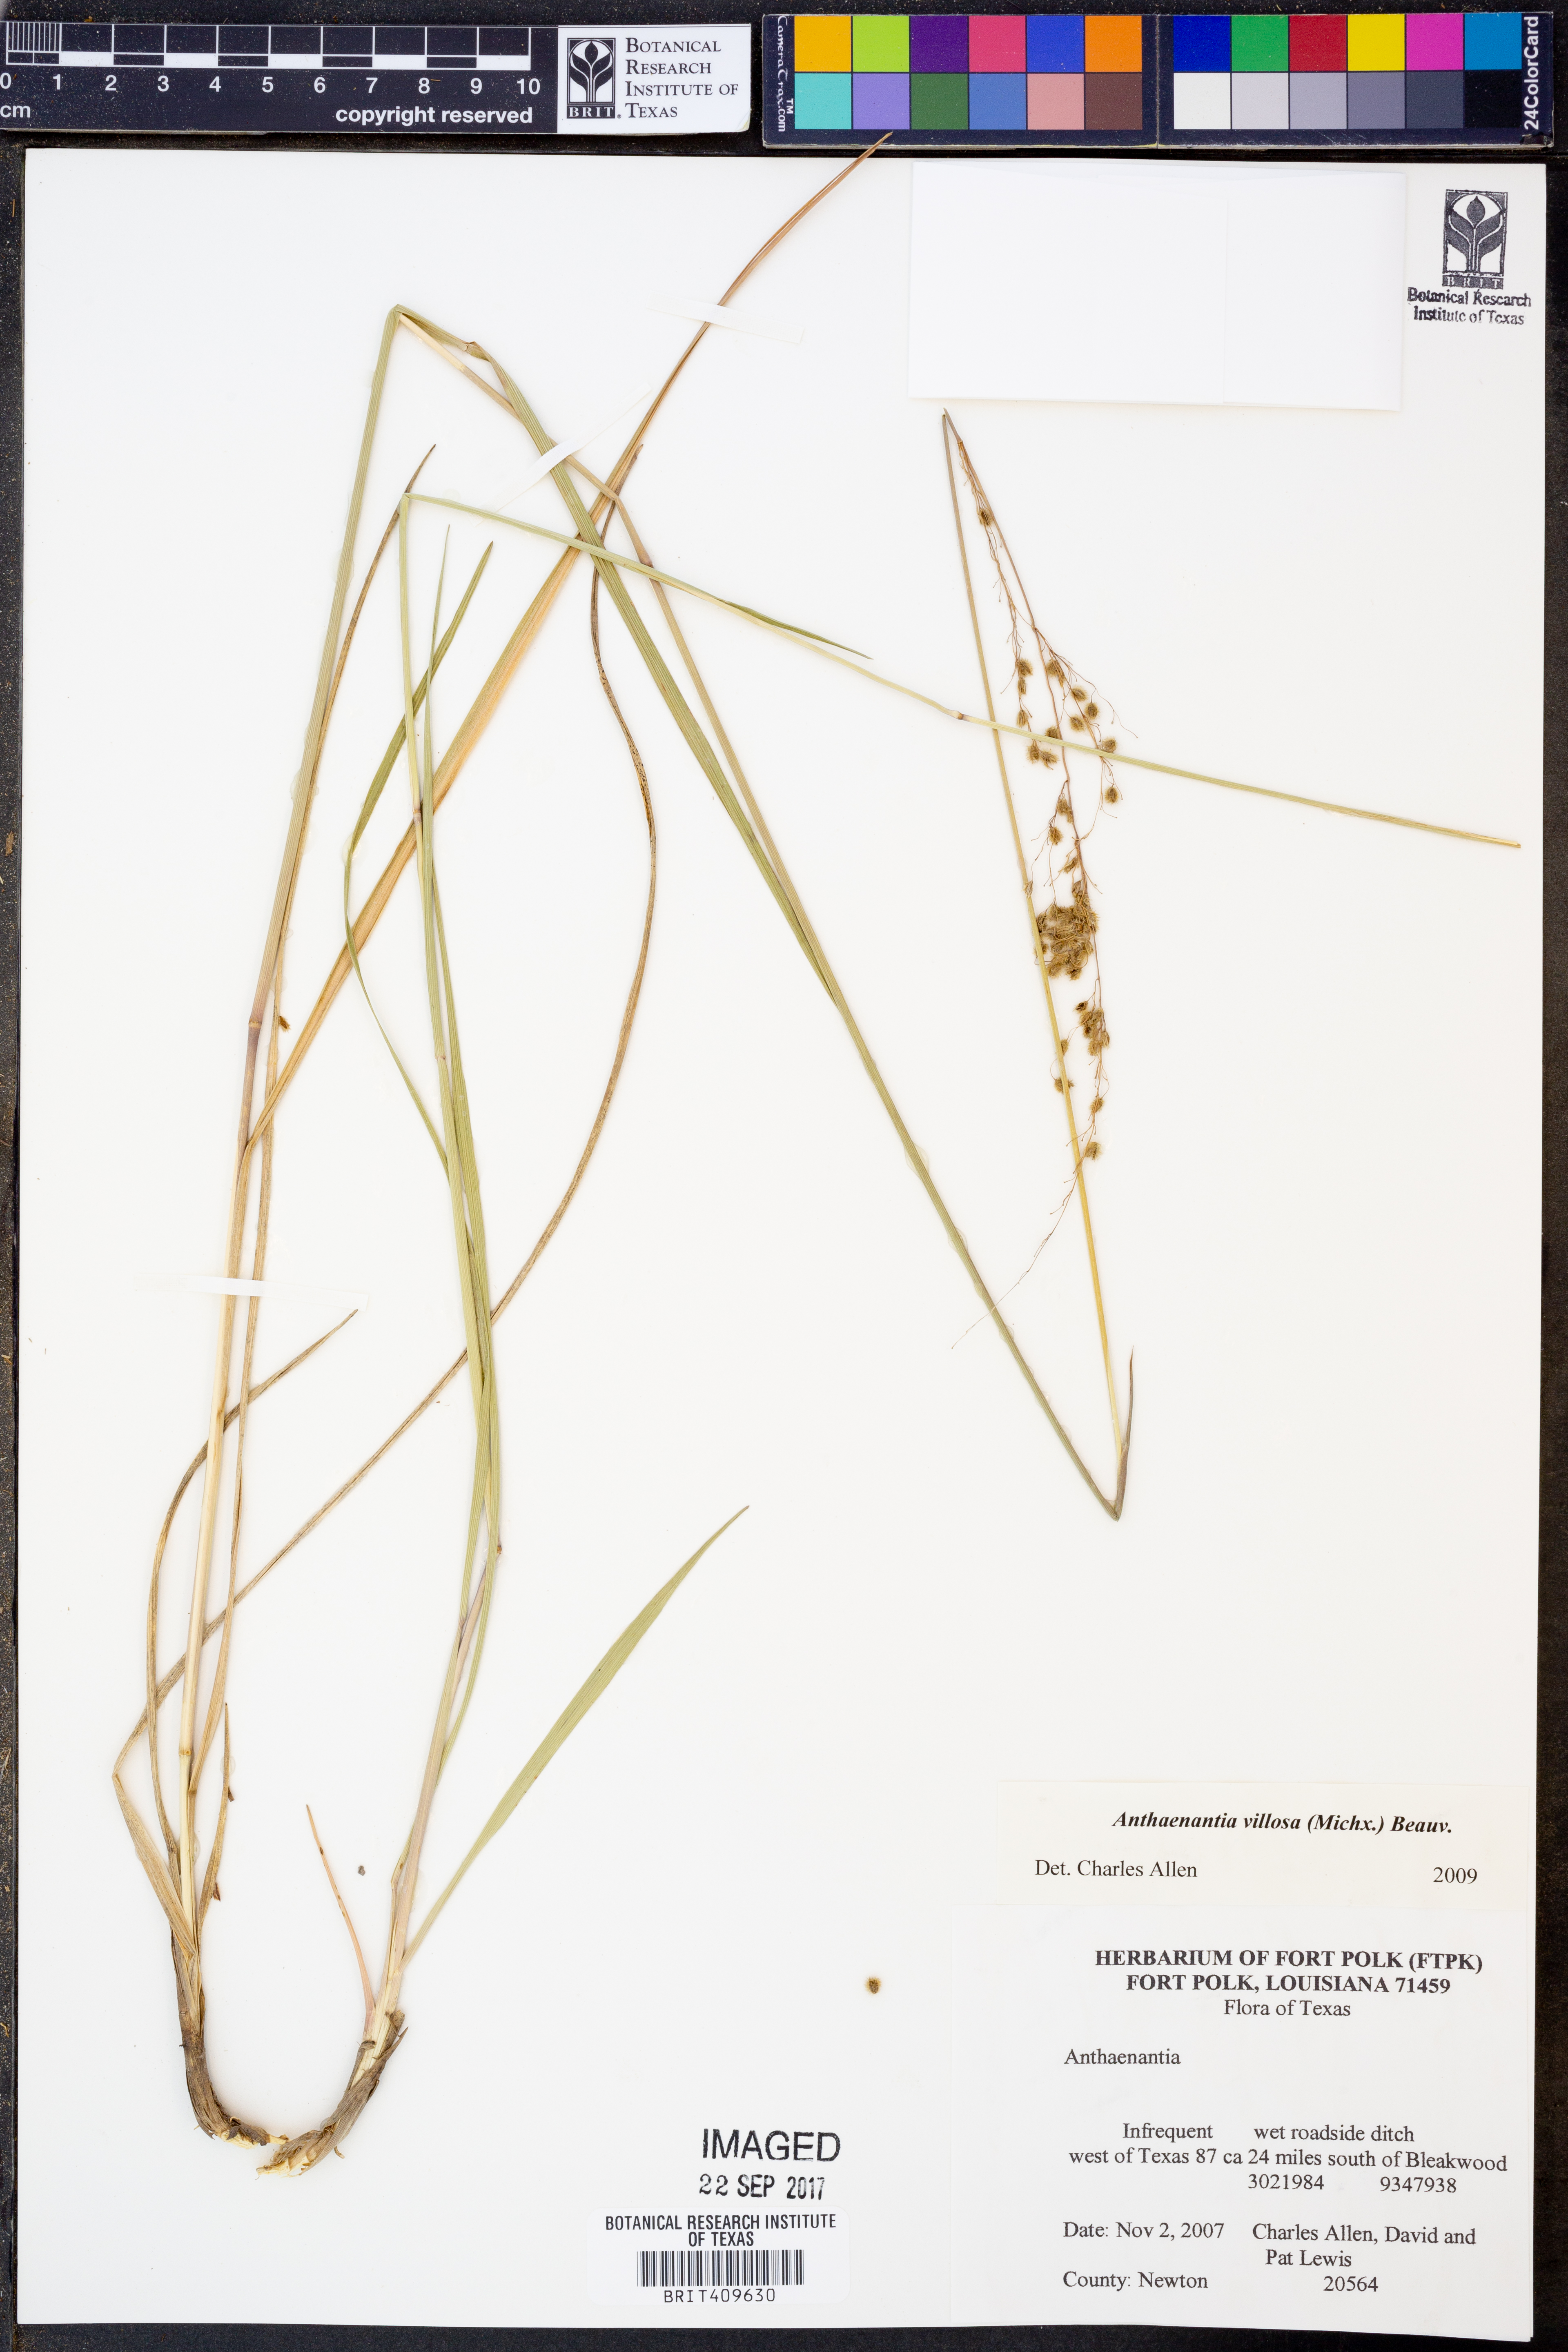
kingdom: Plantae
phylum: Tracheophyta
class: Liliopsida
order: Poales
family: Poaceae
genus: Anthenantia
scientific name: Anthenantia villosa
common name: Green silkyscale
